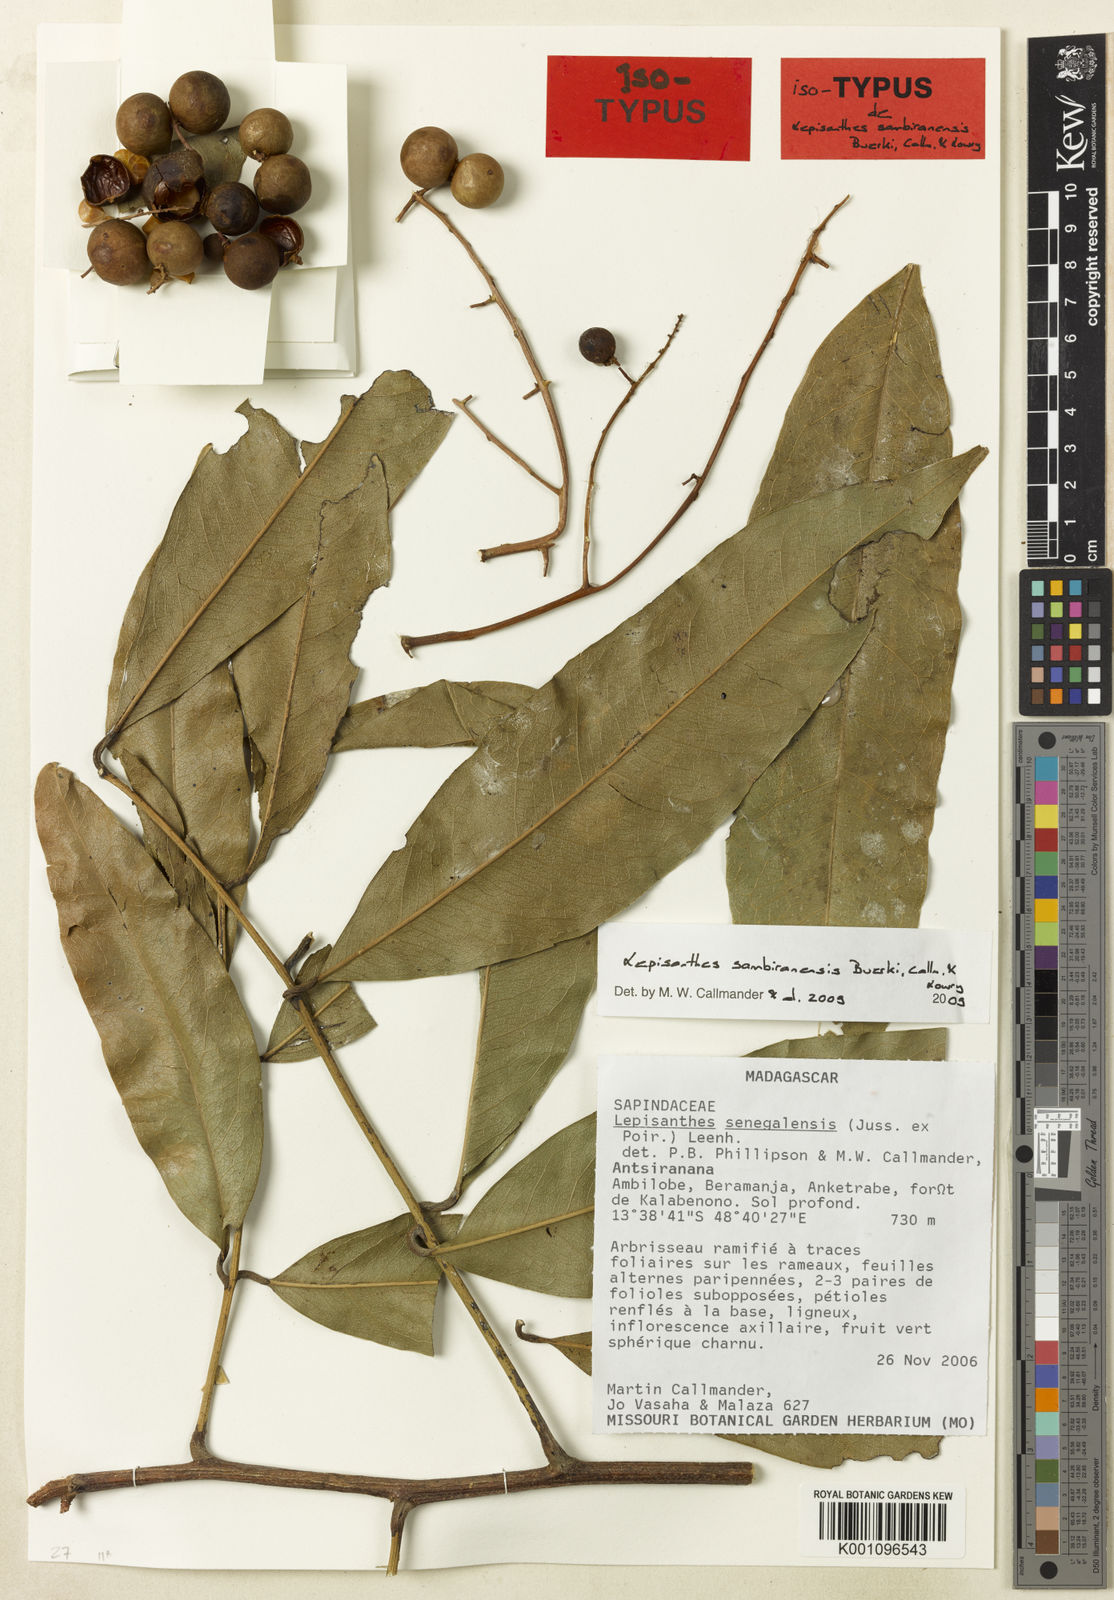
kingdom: Plantae
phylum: Tracheophyta
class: Magnoliopsida
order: Sapindales
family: Sapindaceae
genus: Lepisanthes
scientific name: Lepisanthes sambiranensis
